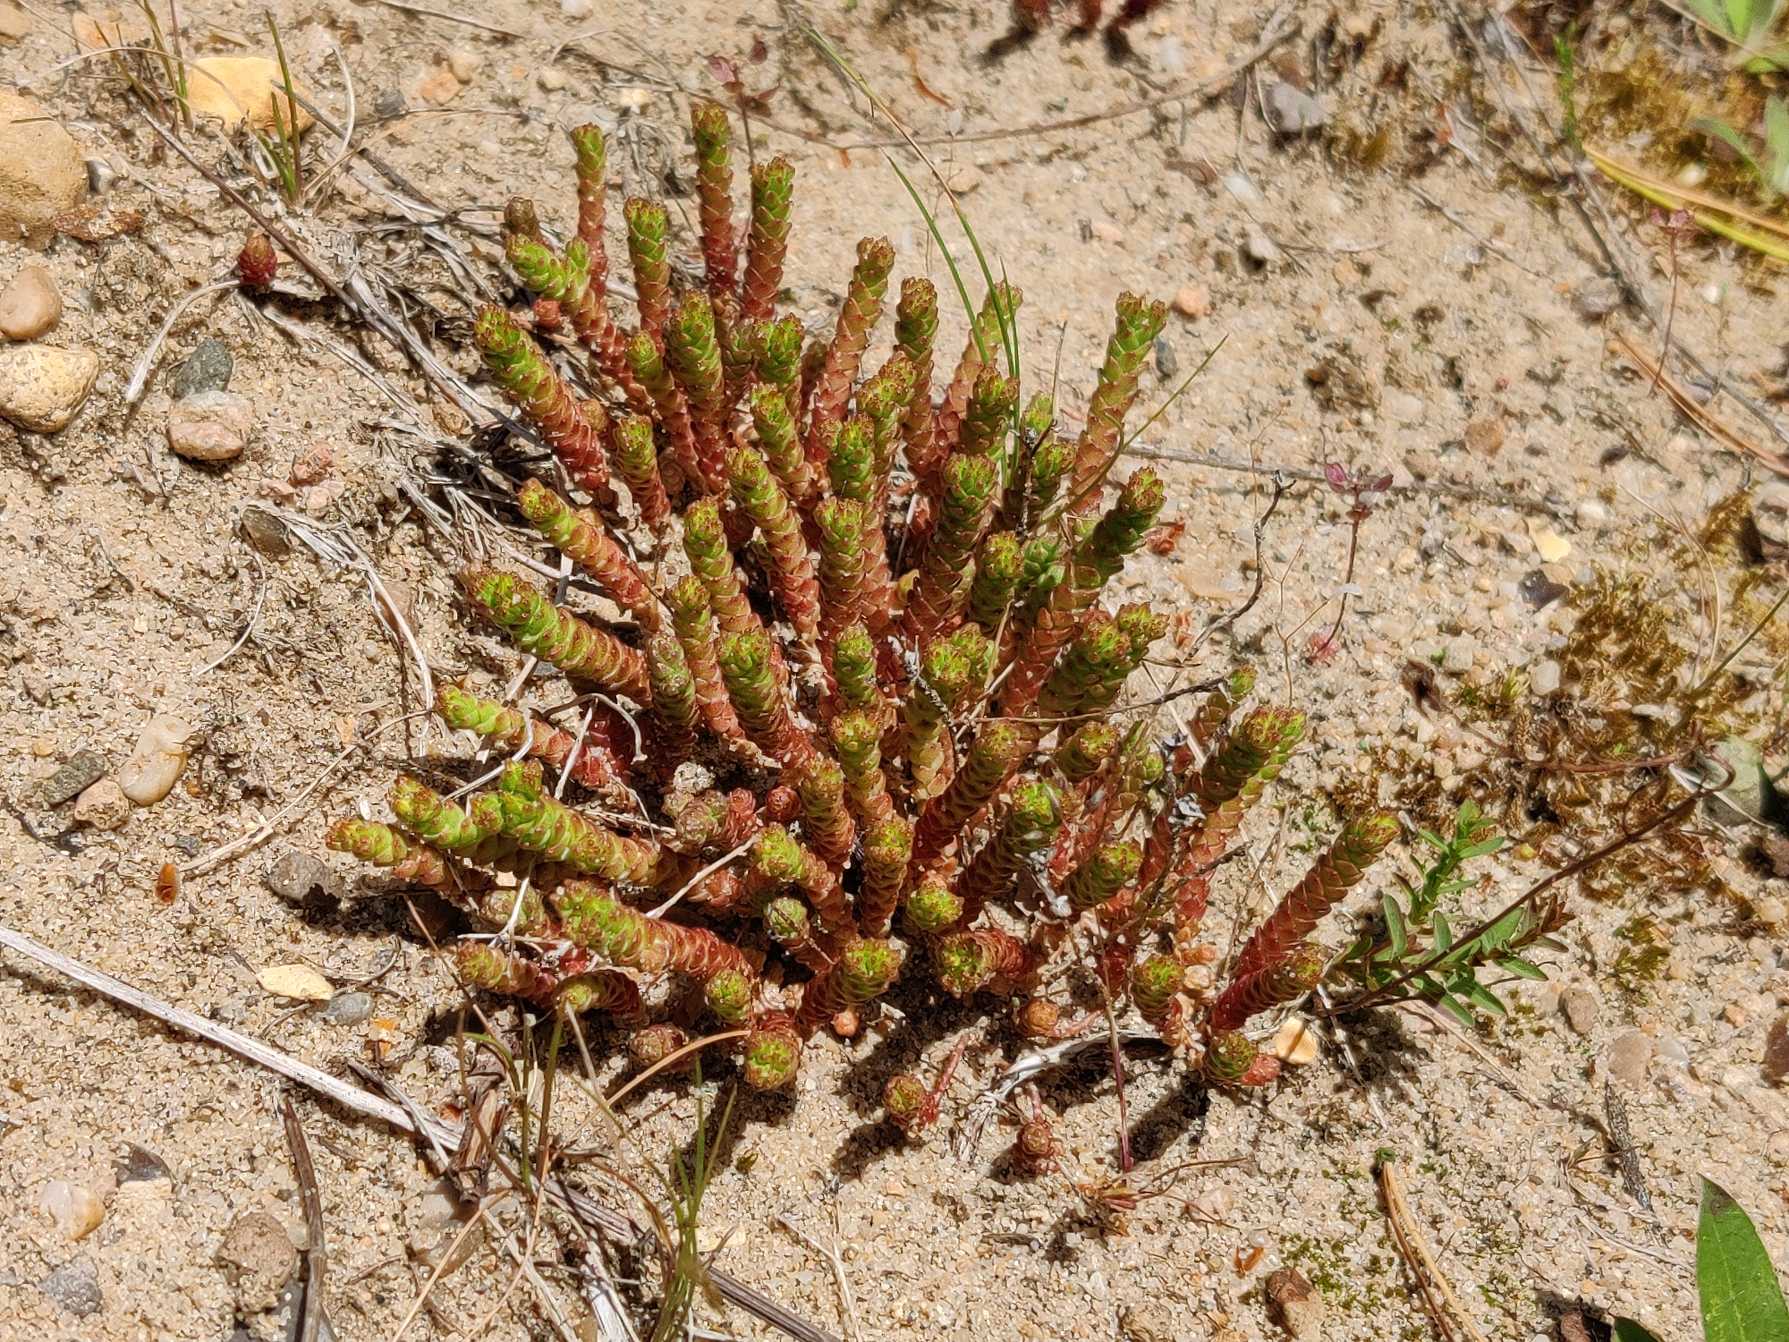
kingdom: Plantae
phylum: Tracheophyta
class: Magnoliopsida
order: Saxifragales
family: Crassulaceae
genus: Sedum
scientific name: Sedum acre
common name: Bidende stenurt
